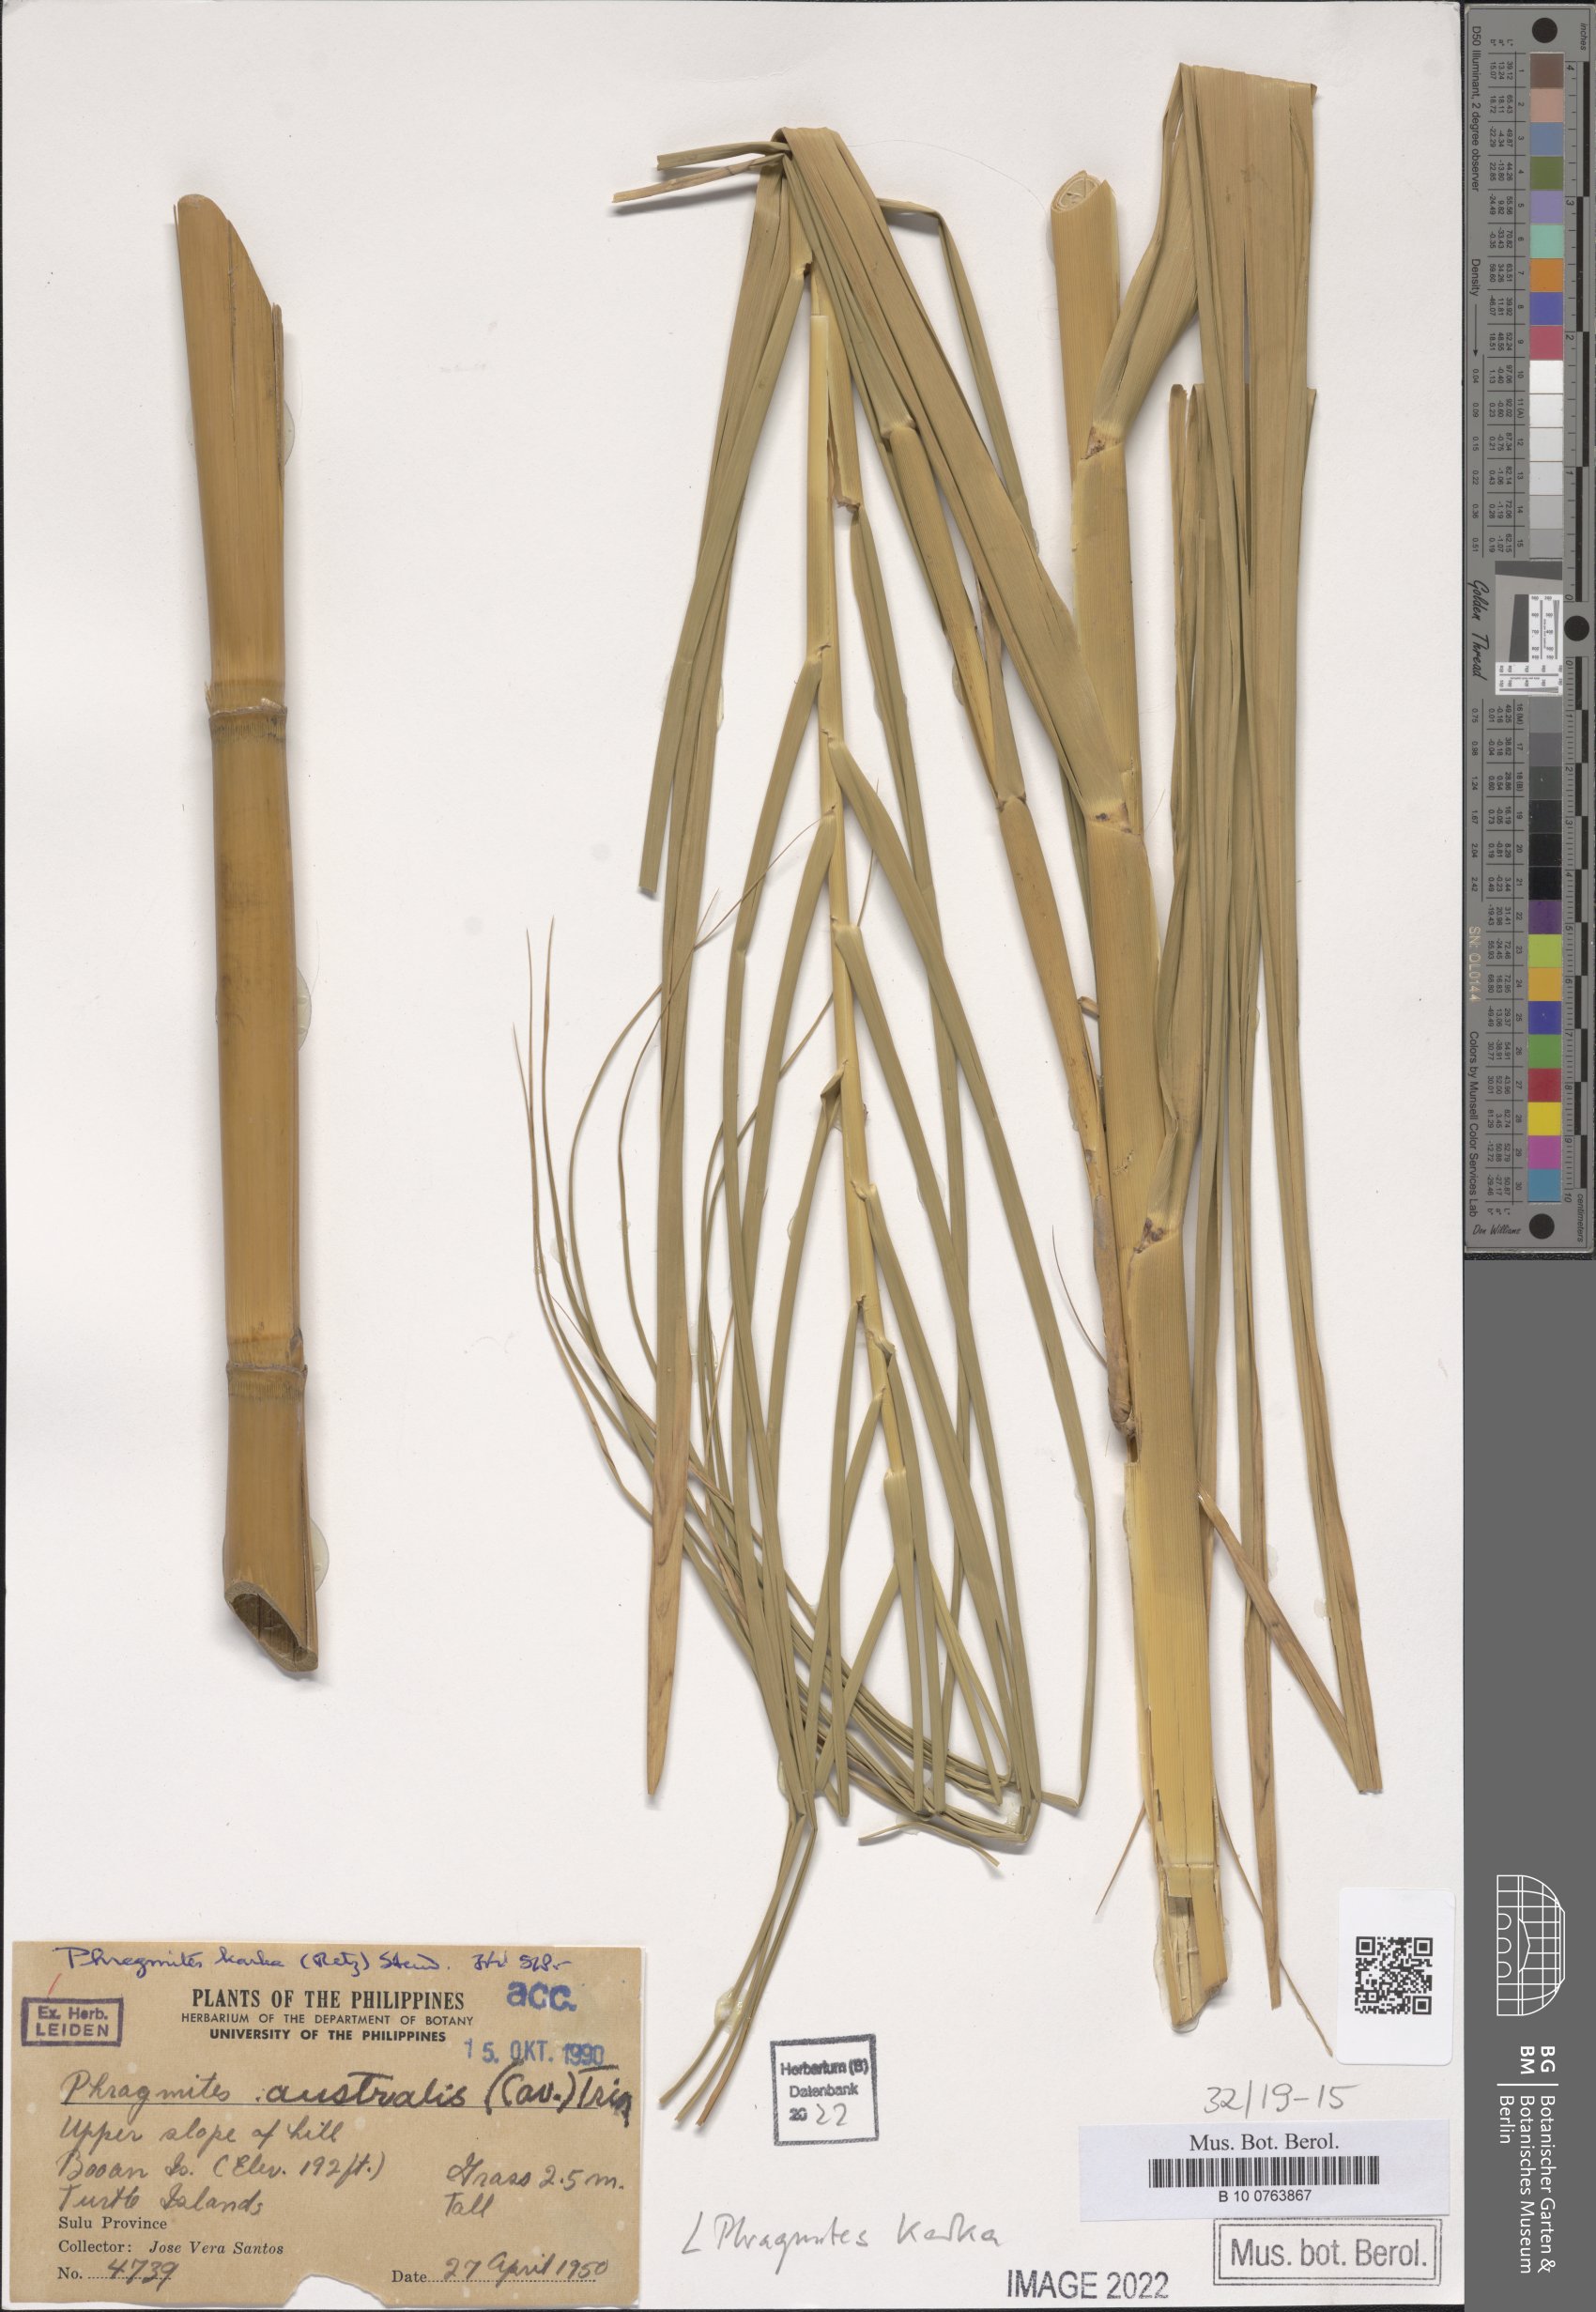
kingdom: Plantae
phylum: Tracheophyta
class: Liliopsida
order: Poales
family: Poaceae
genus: Phragmites
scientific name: Phragmites karka
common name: Tropical reed
